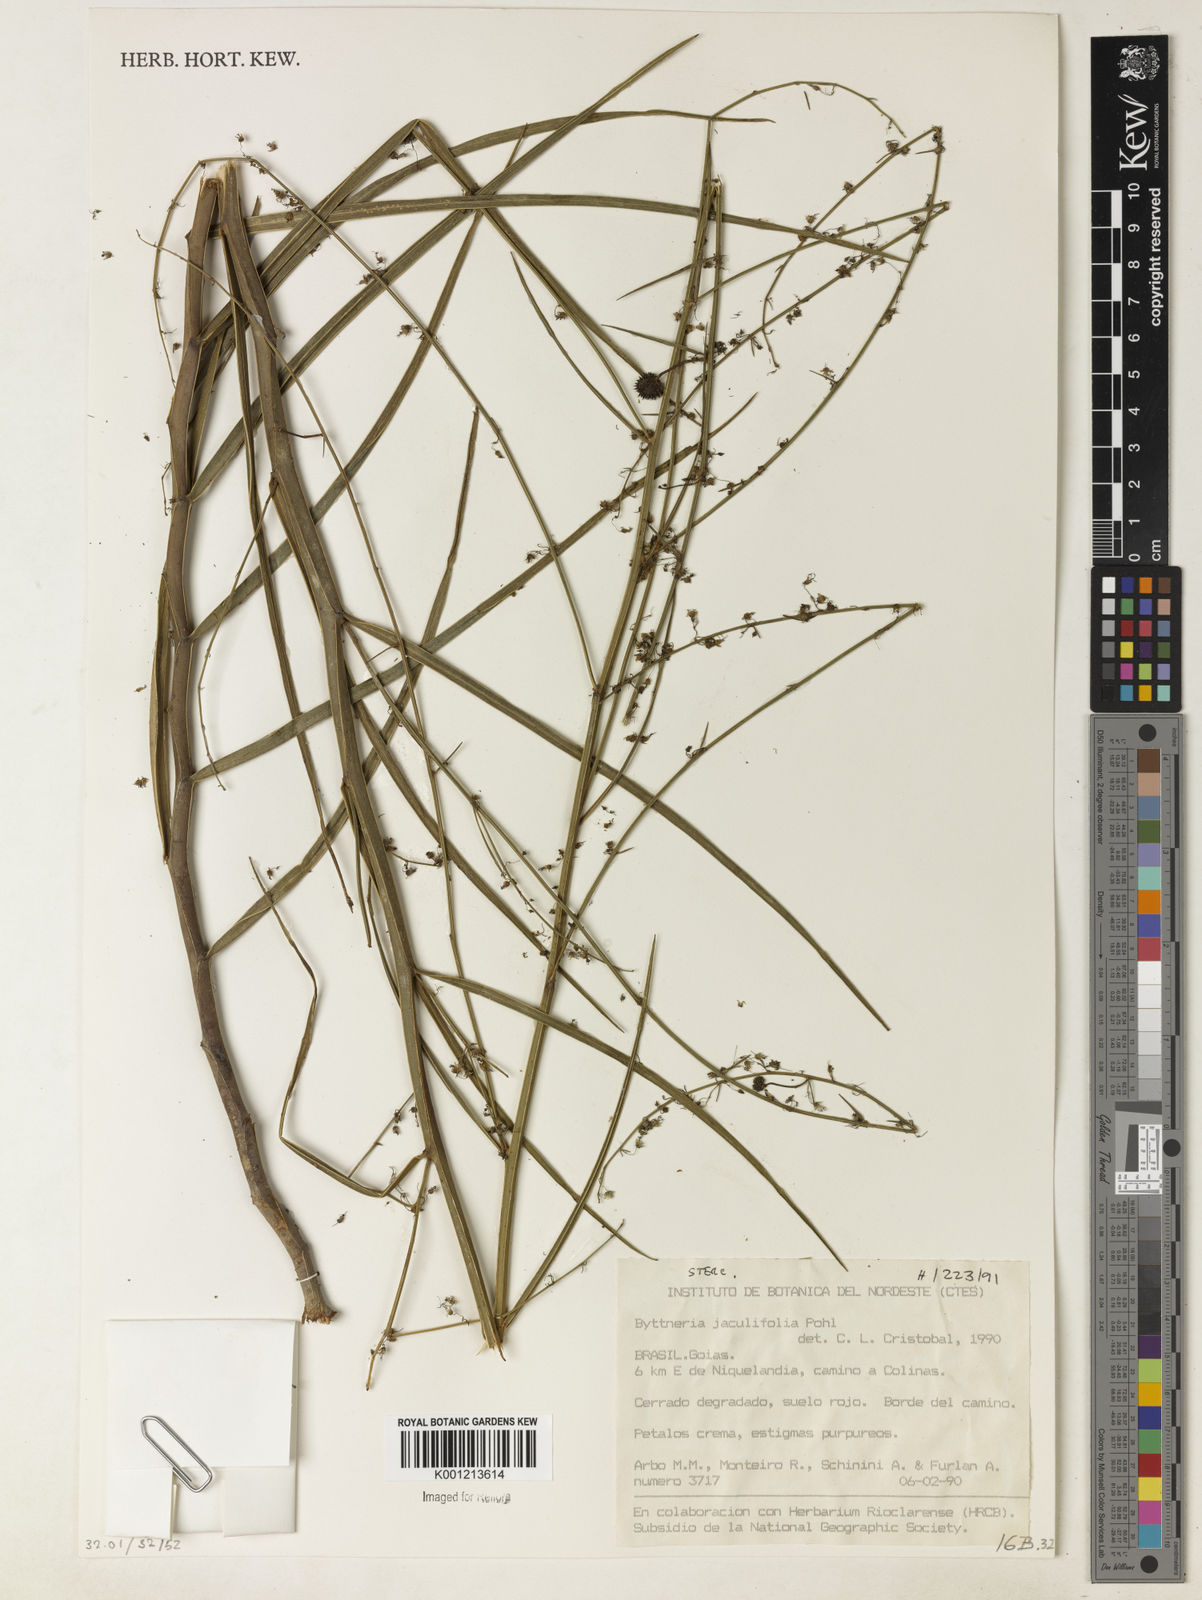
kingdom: Plantae
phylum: Tracheophyta
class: Magnoliopsida
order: Malvales
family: Malvaceae
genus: Byttneria
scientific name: Byttneria jaculifolia
